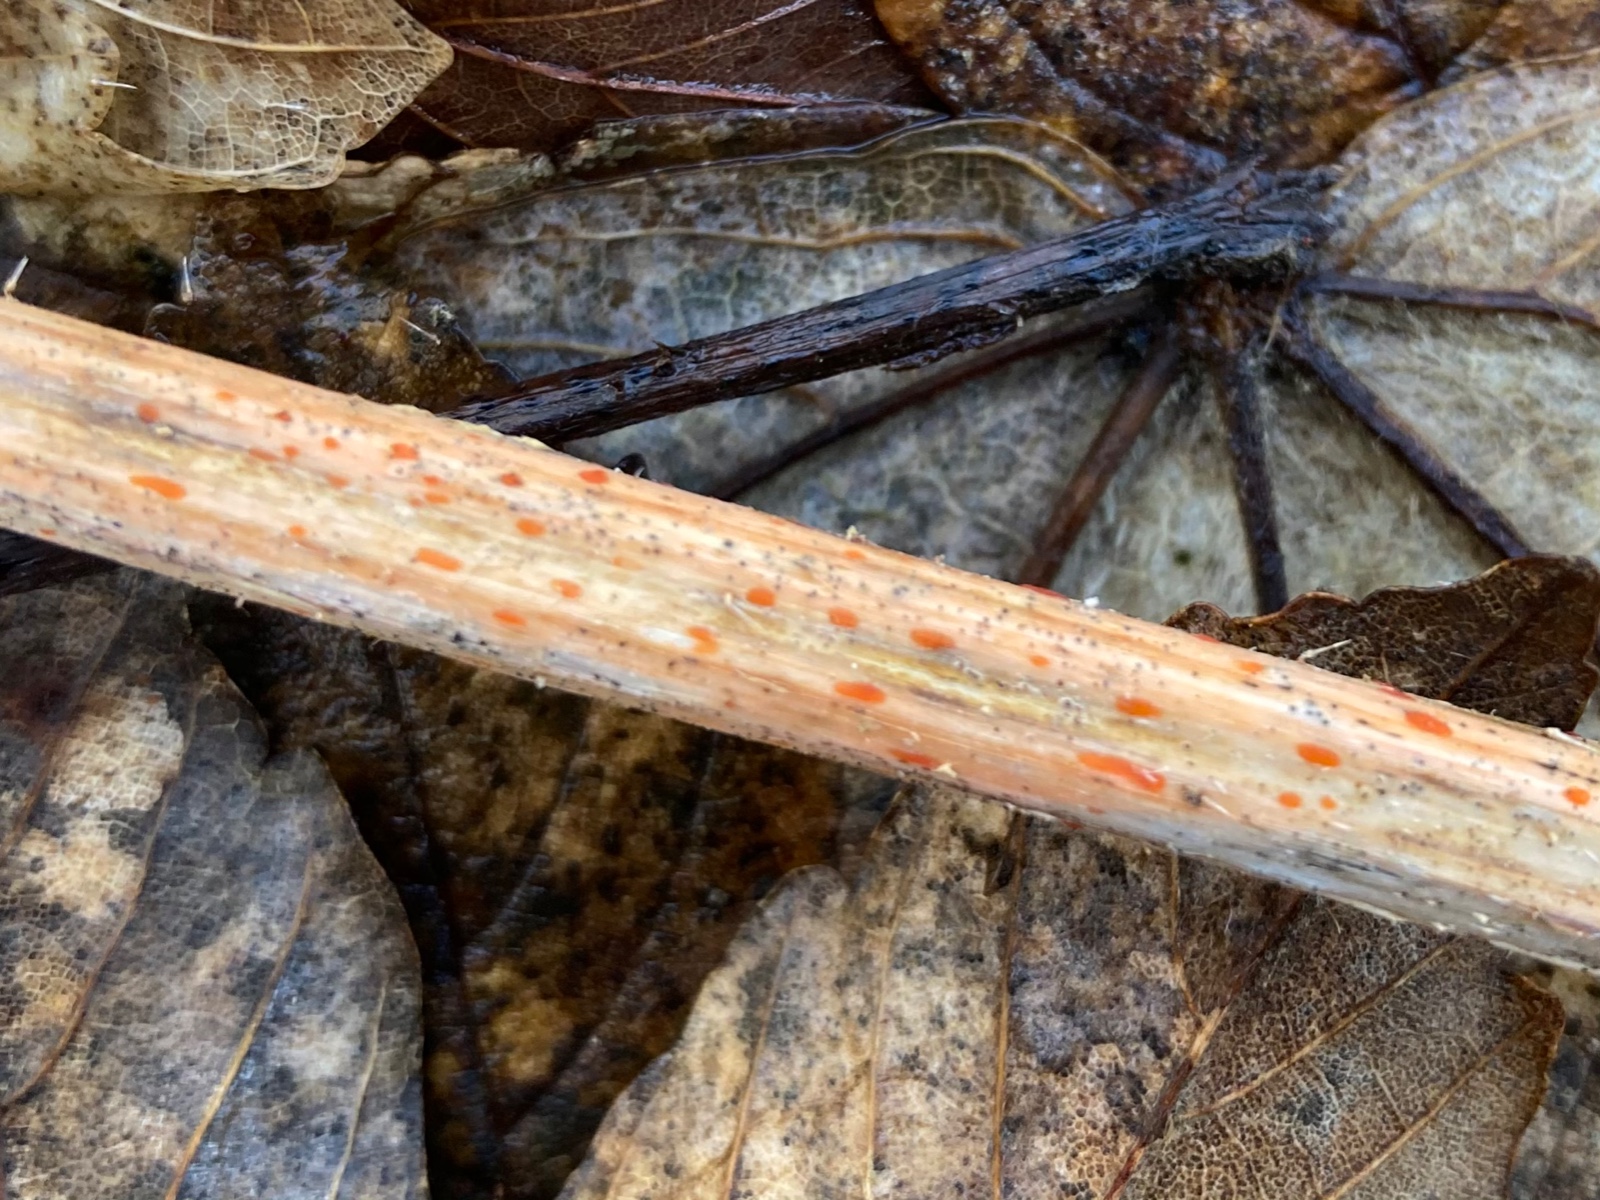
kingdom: Fungi
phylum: Ascomycota
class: Leotiomycetes
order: Helotiales
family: Calloriaceae
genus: Calloria
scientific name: Calloria urticae
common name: nælde-orangeskive
